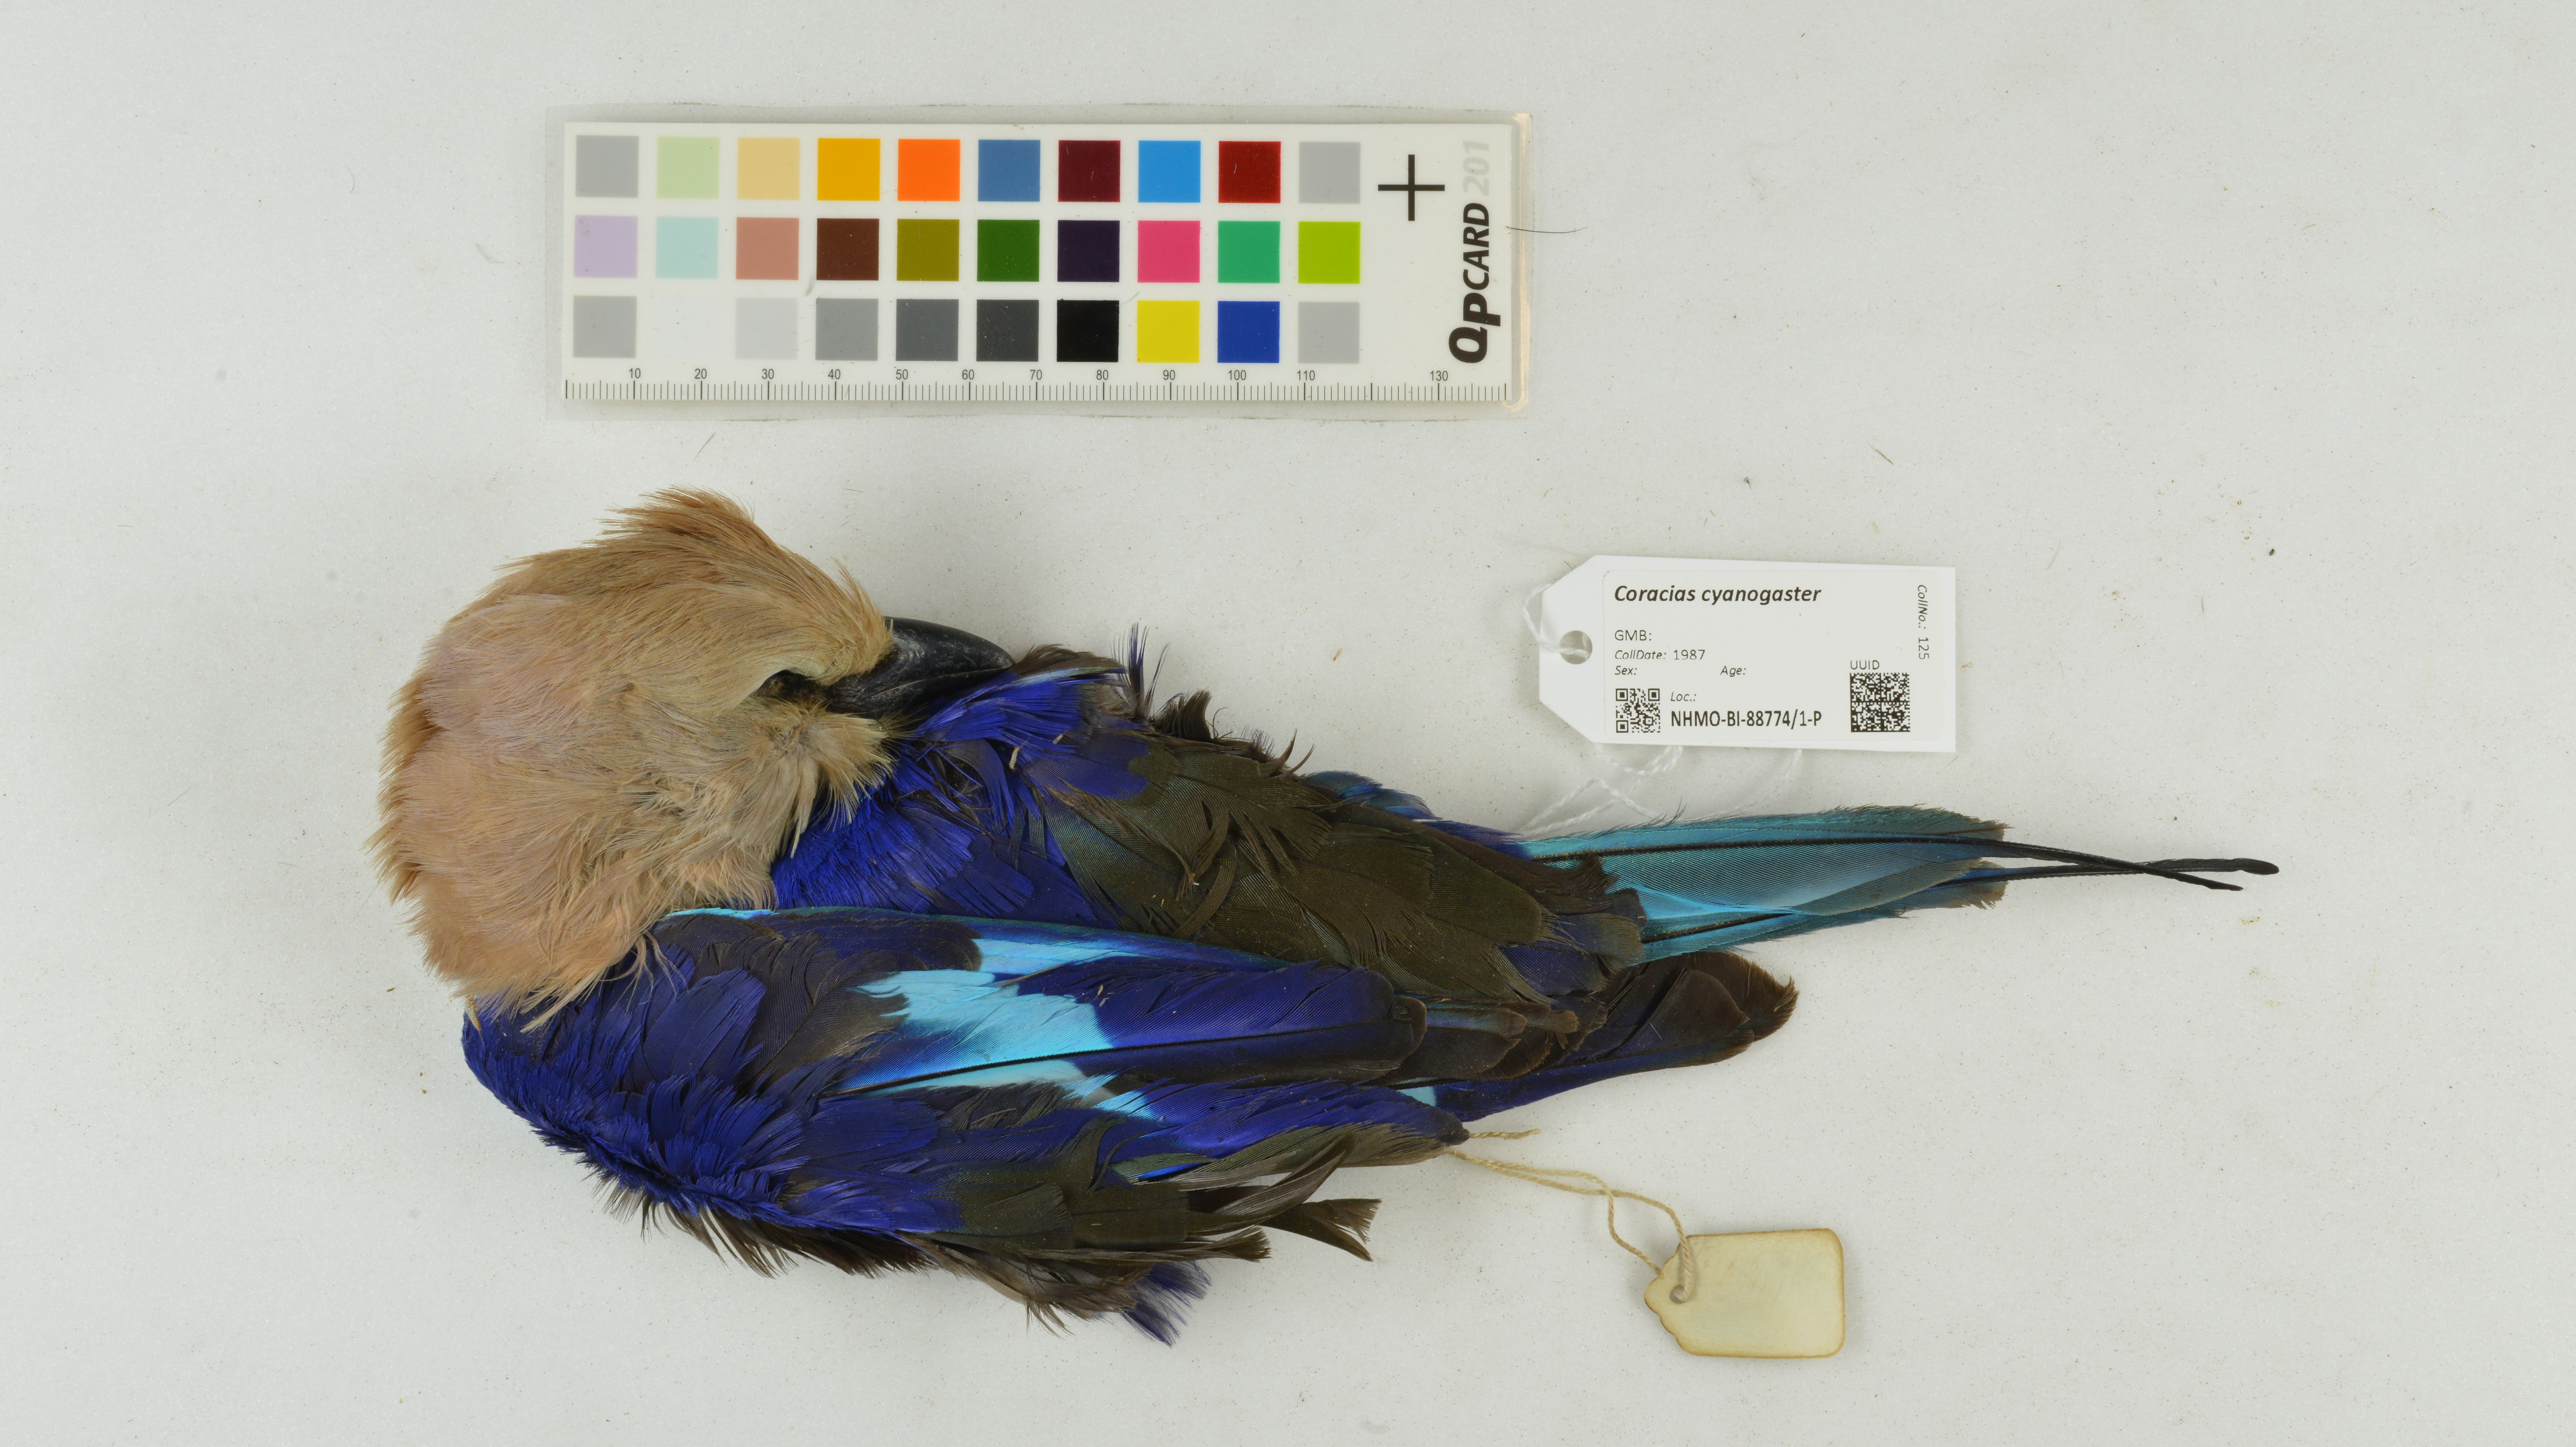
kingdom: Animalia
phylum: Chordata
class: Aves
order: Coraciiformes
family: Coraciidae
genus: Coracias
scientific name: Coracias cyanogaster
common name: Blue-bellied roller
